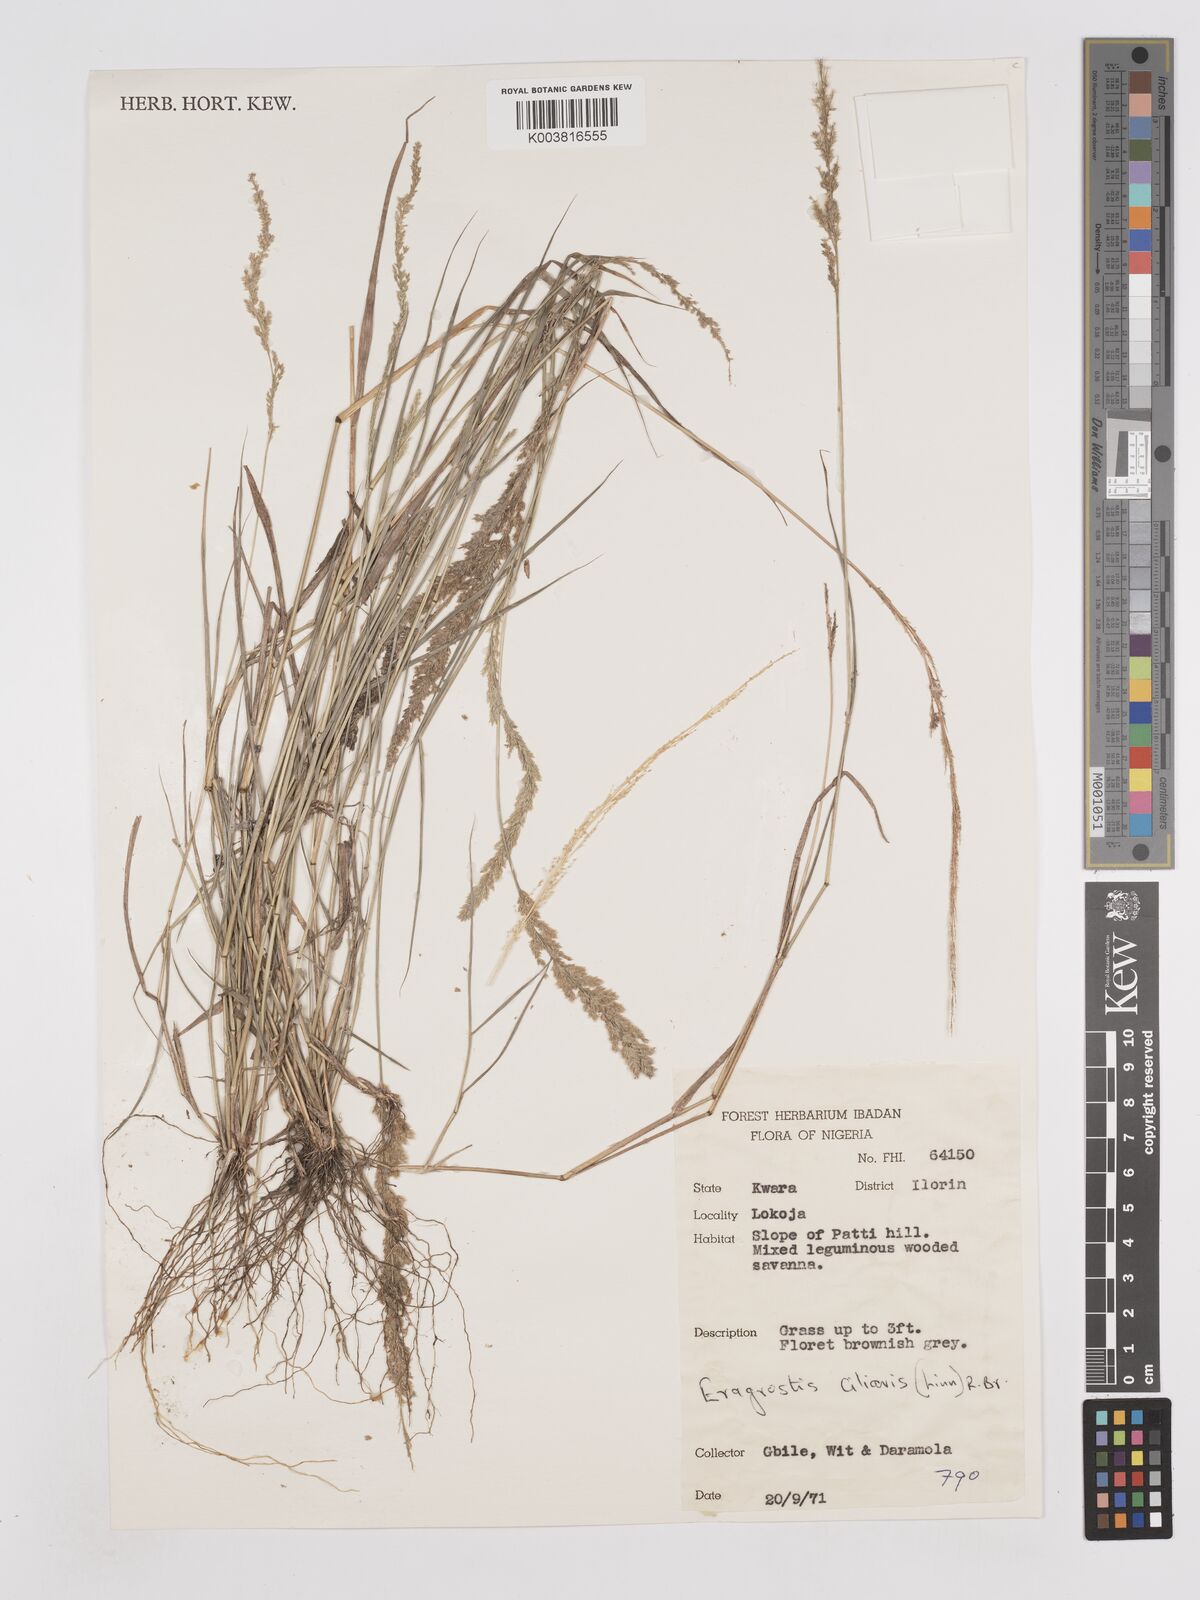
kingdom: Plantae
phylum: Tracheophyta
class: Liliopsida
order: Poales
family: Poaceae
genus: Eragrostis
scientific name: Eragrostis ciliaris
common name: Gophertail lovegrass
